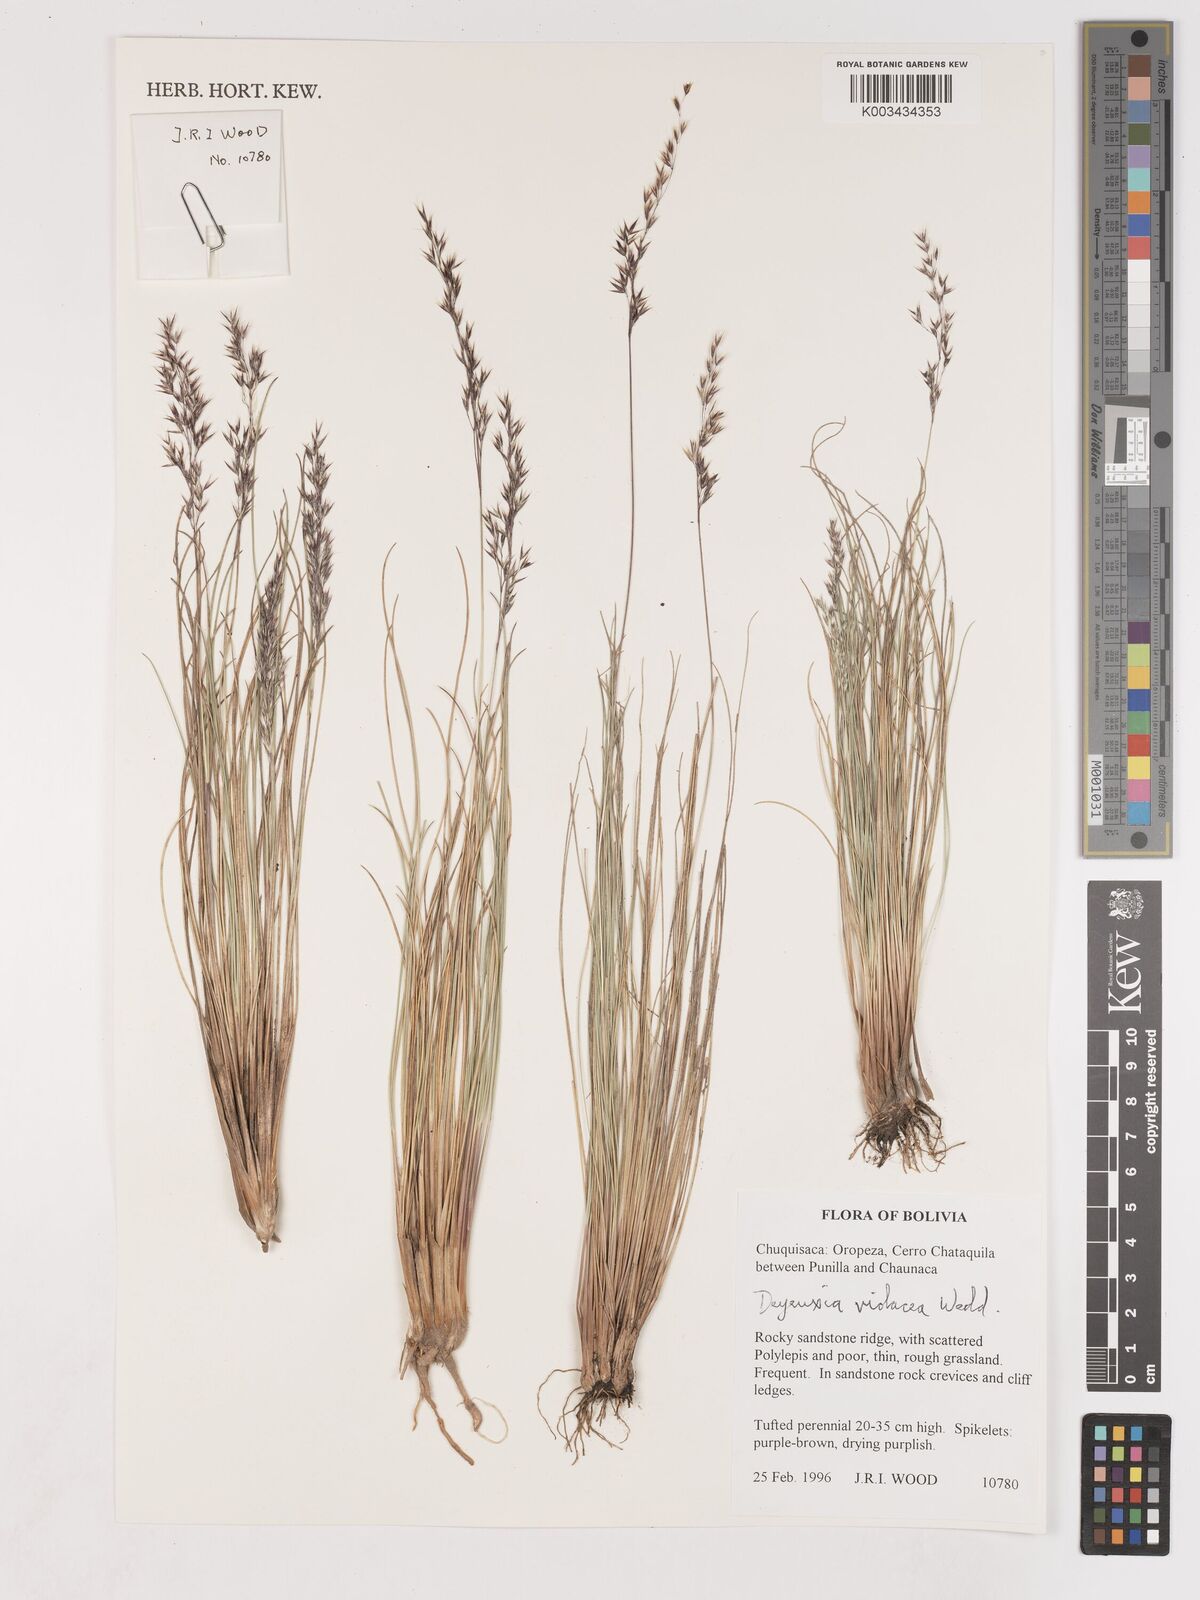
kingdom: Plantae
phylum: Tracheophyta
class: Liliopsida
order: Poales
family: Poaceae
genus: Cinnagrostis
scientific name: Cinnagrostis violacea
